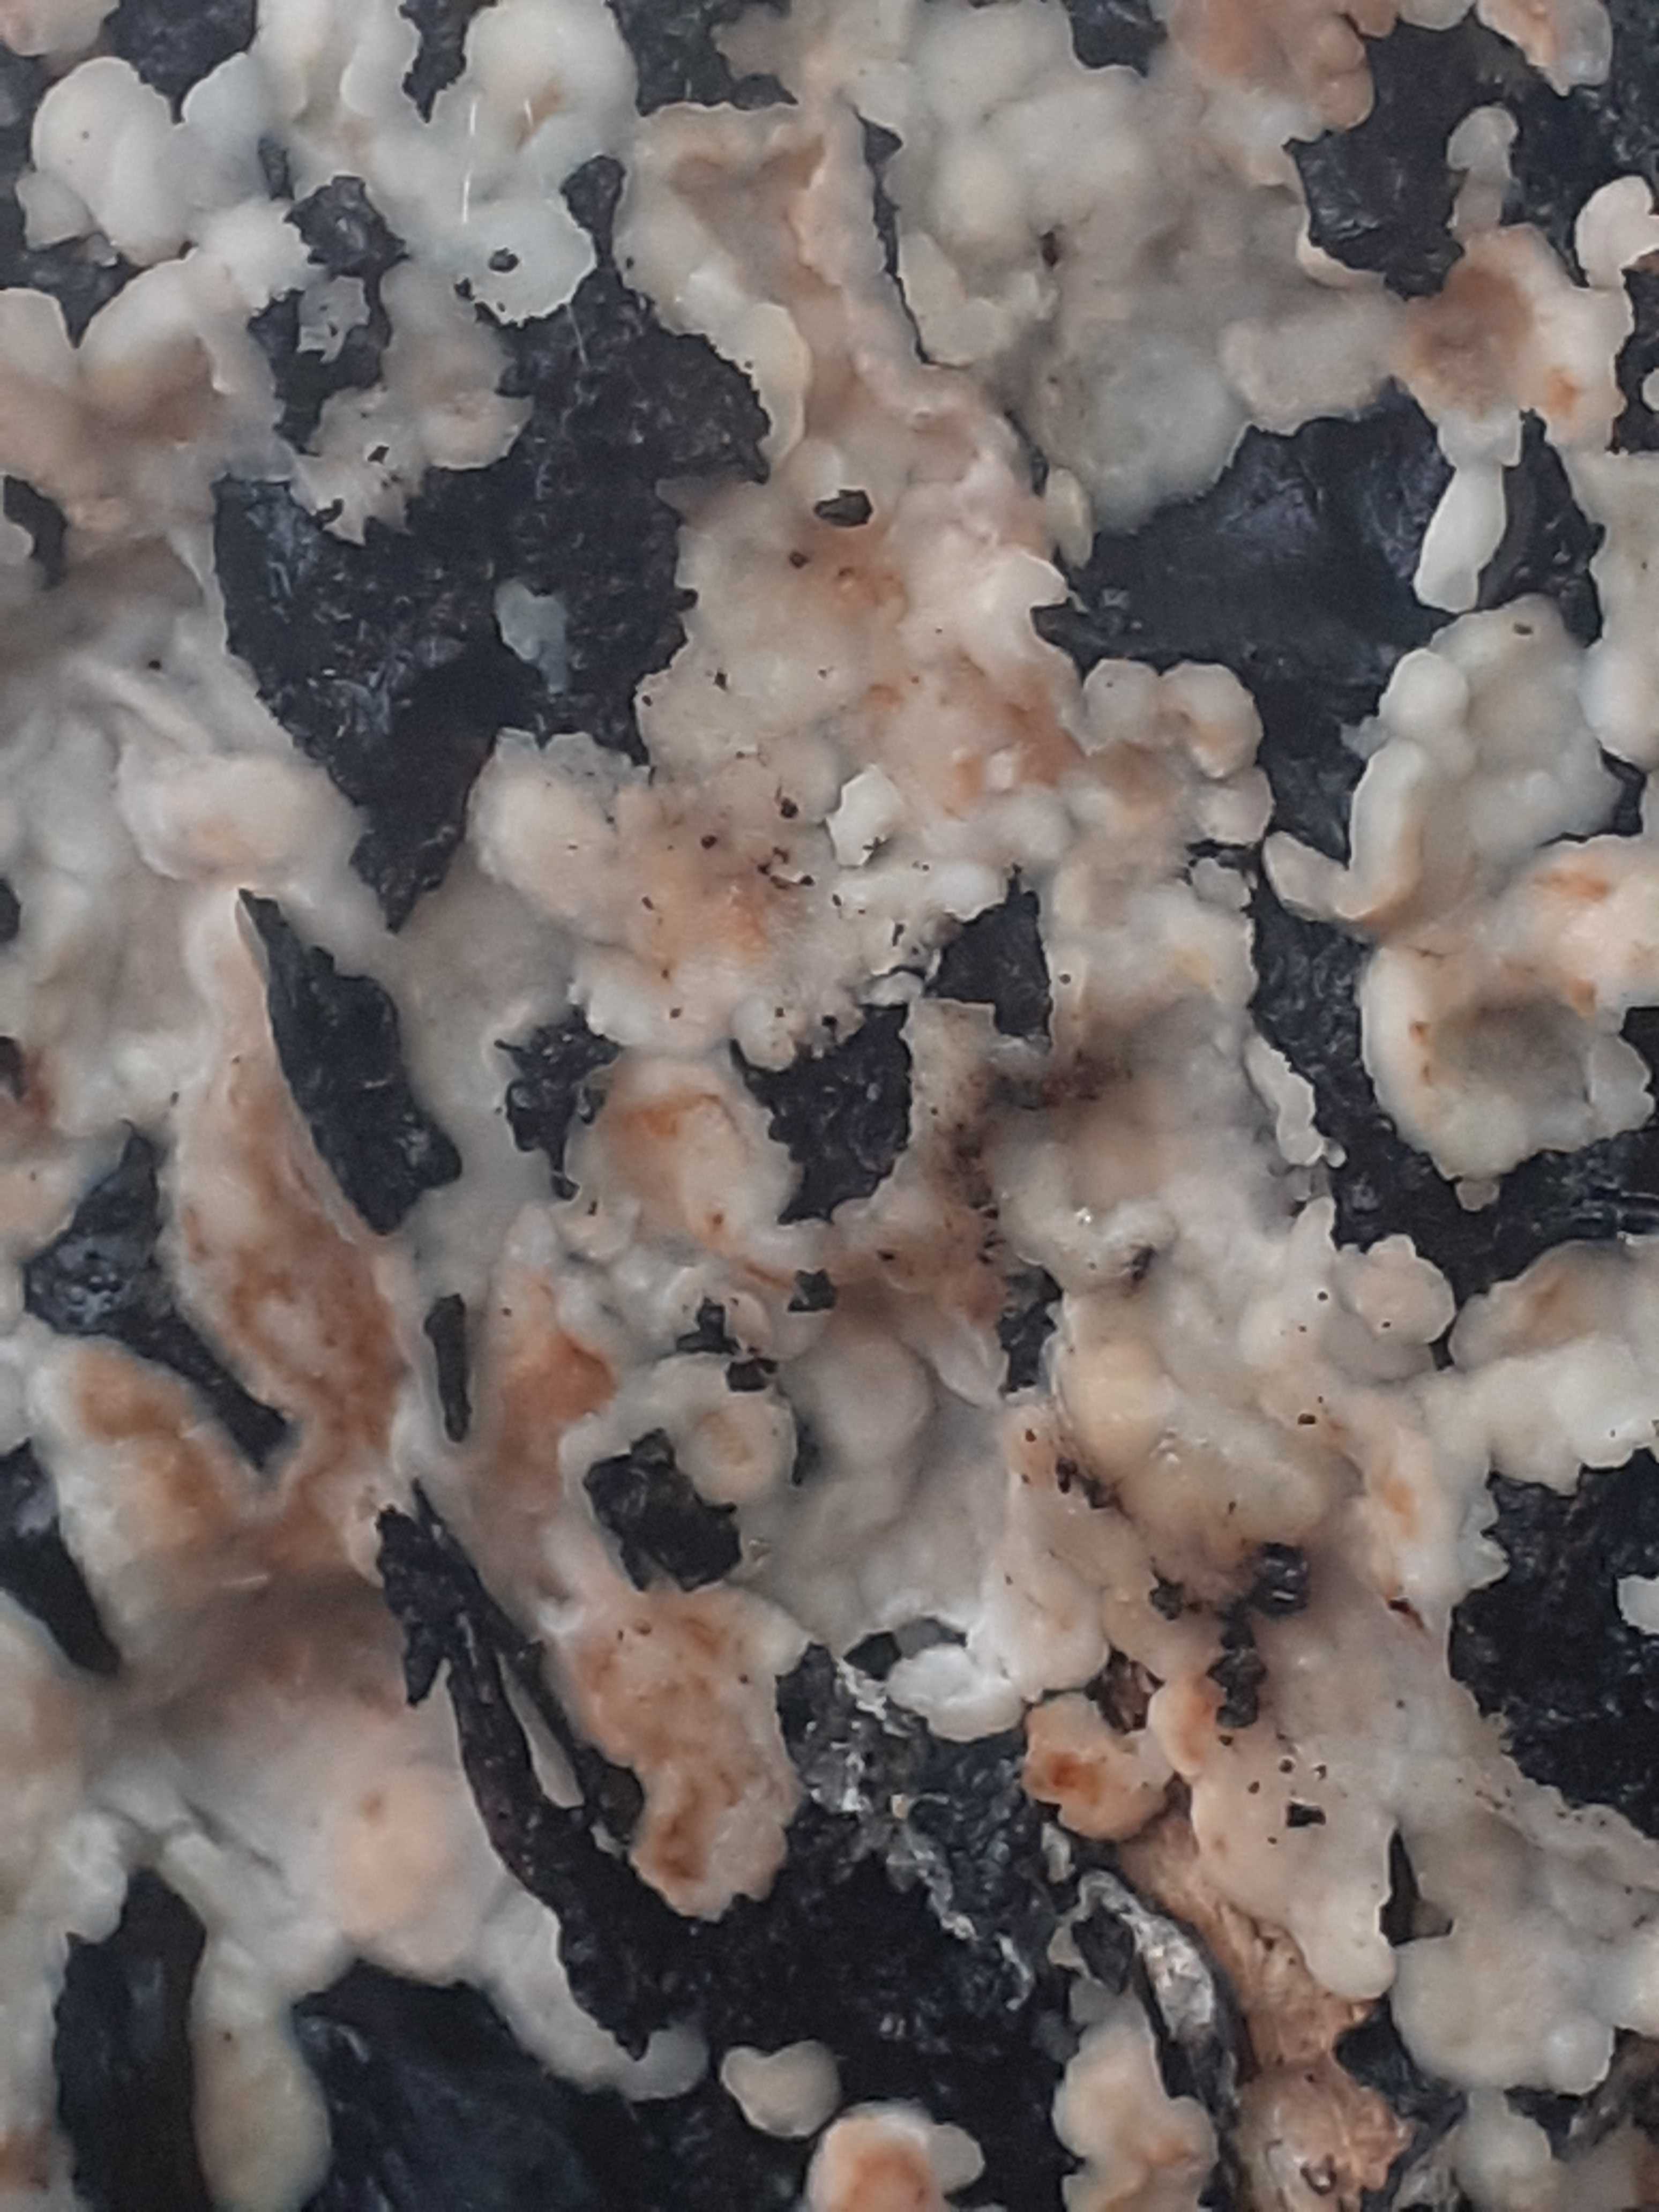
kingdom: Fungi
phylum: Basidiomycota
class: Agaricomycetes
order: Polyporales
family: Meripilaceae
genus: Rigidoporus
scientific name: Rigidoporus sanguinolentus
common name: blod-skorpeporesvamp
